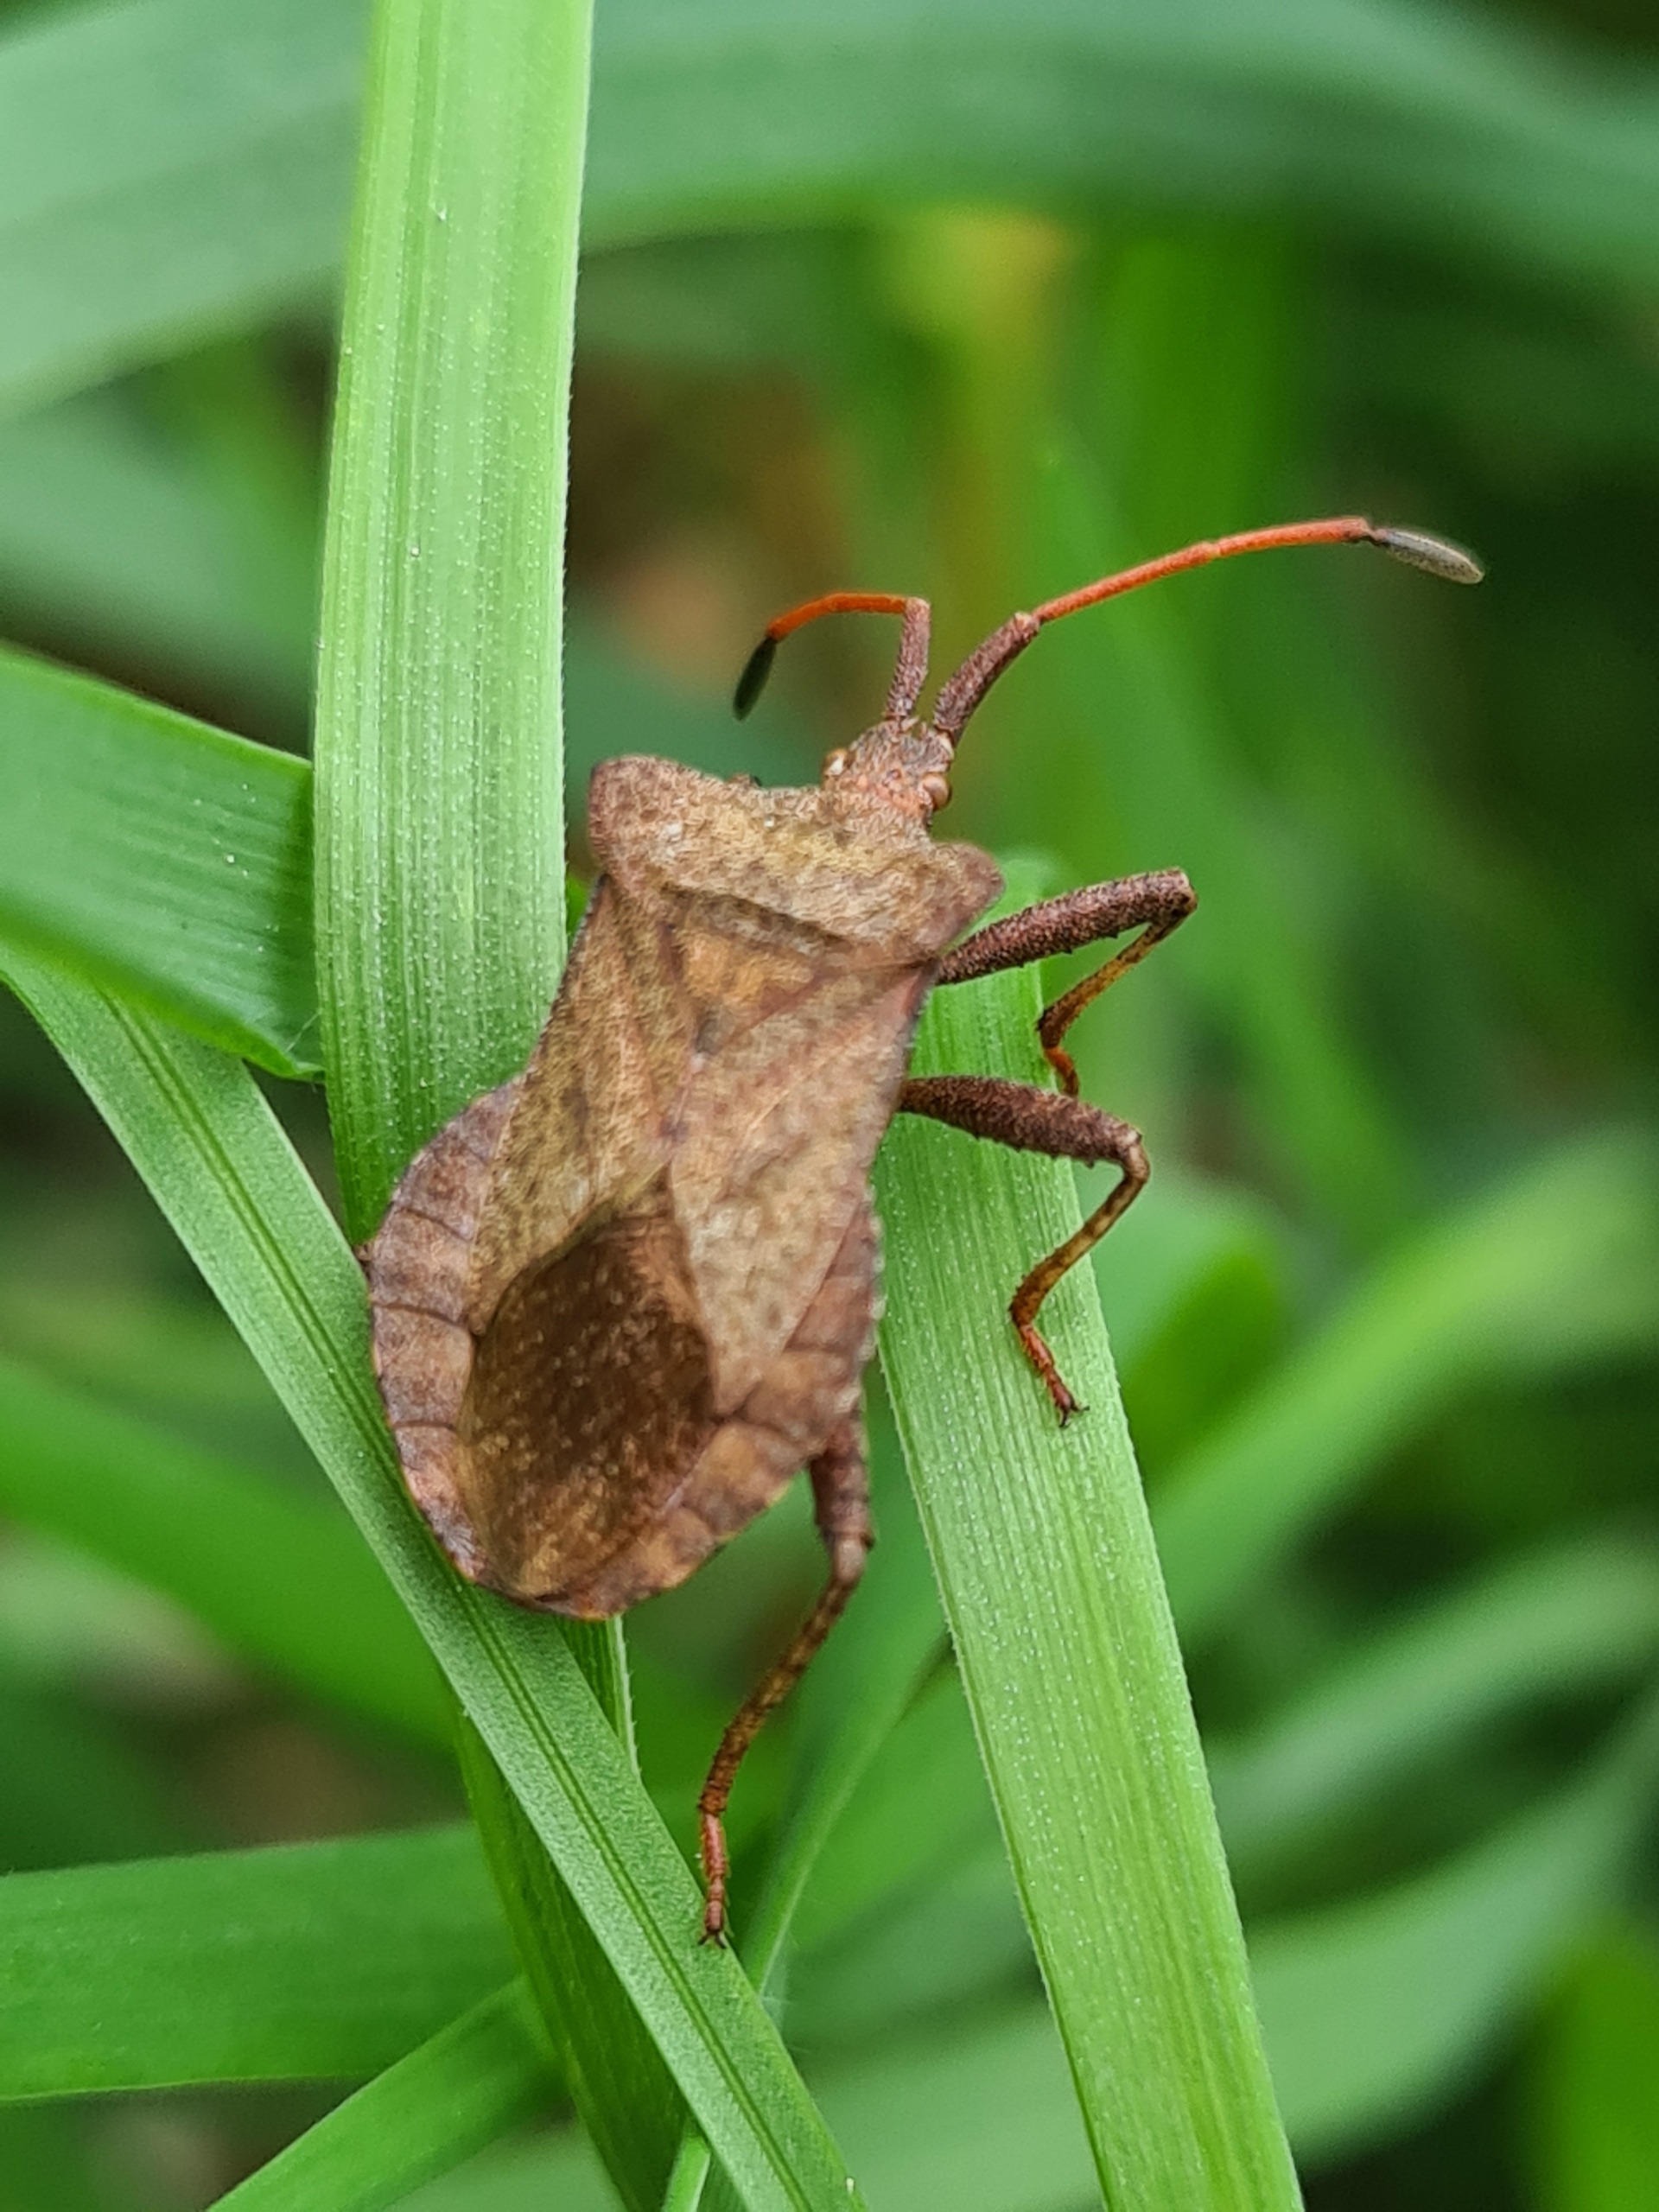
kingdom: Animalia
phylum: Arthropoda
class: Insecta
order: Hemiptera
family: Coreidae
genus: Coreus
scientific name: Coreus marginatus
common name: Skræppetæge
